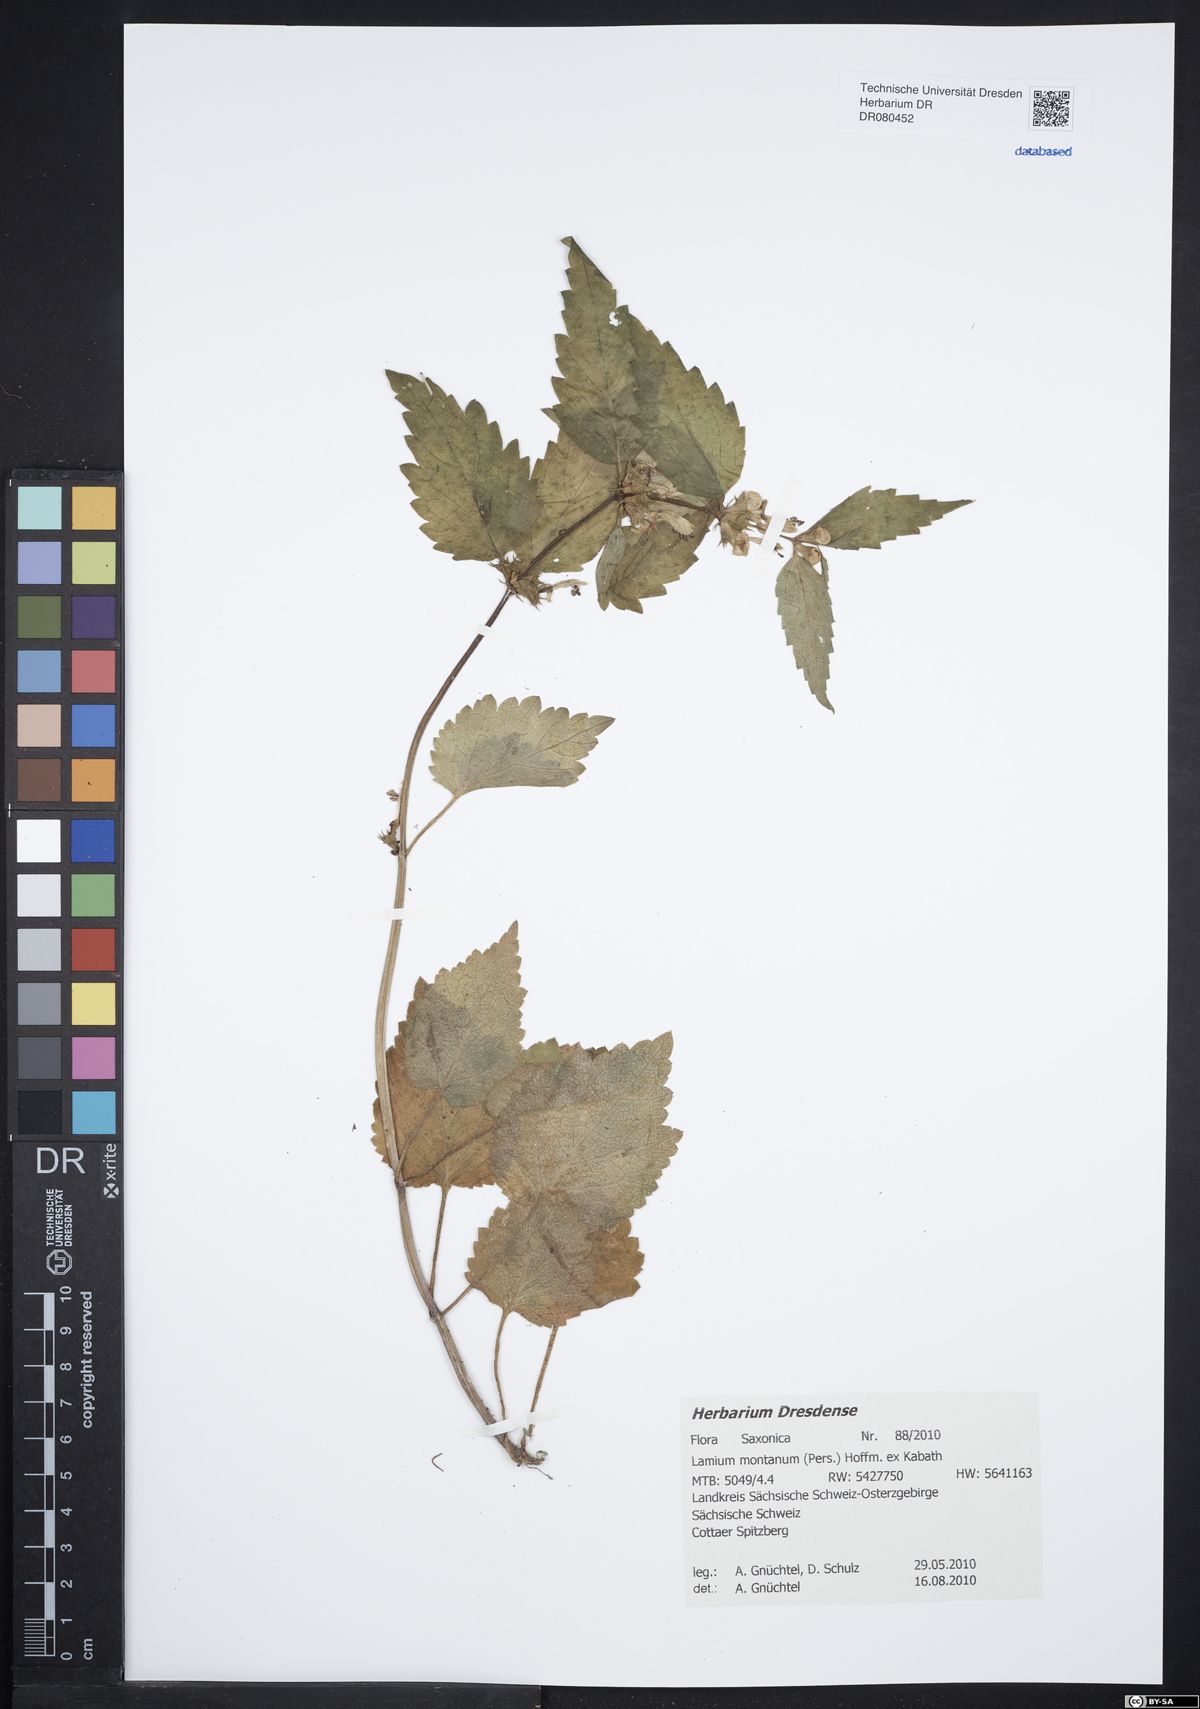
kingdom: Plantae
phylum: Tracheophyta
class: Magnoliopsida
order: Lamiales
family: Lamiaceae
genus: Lamium
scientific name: Lamium galeobdolon
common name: Yellow archangel
